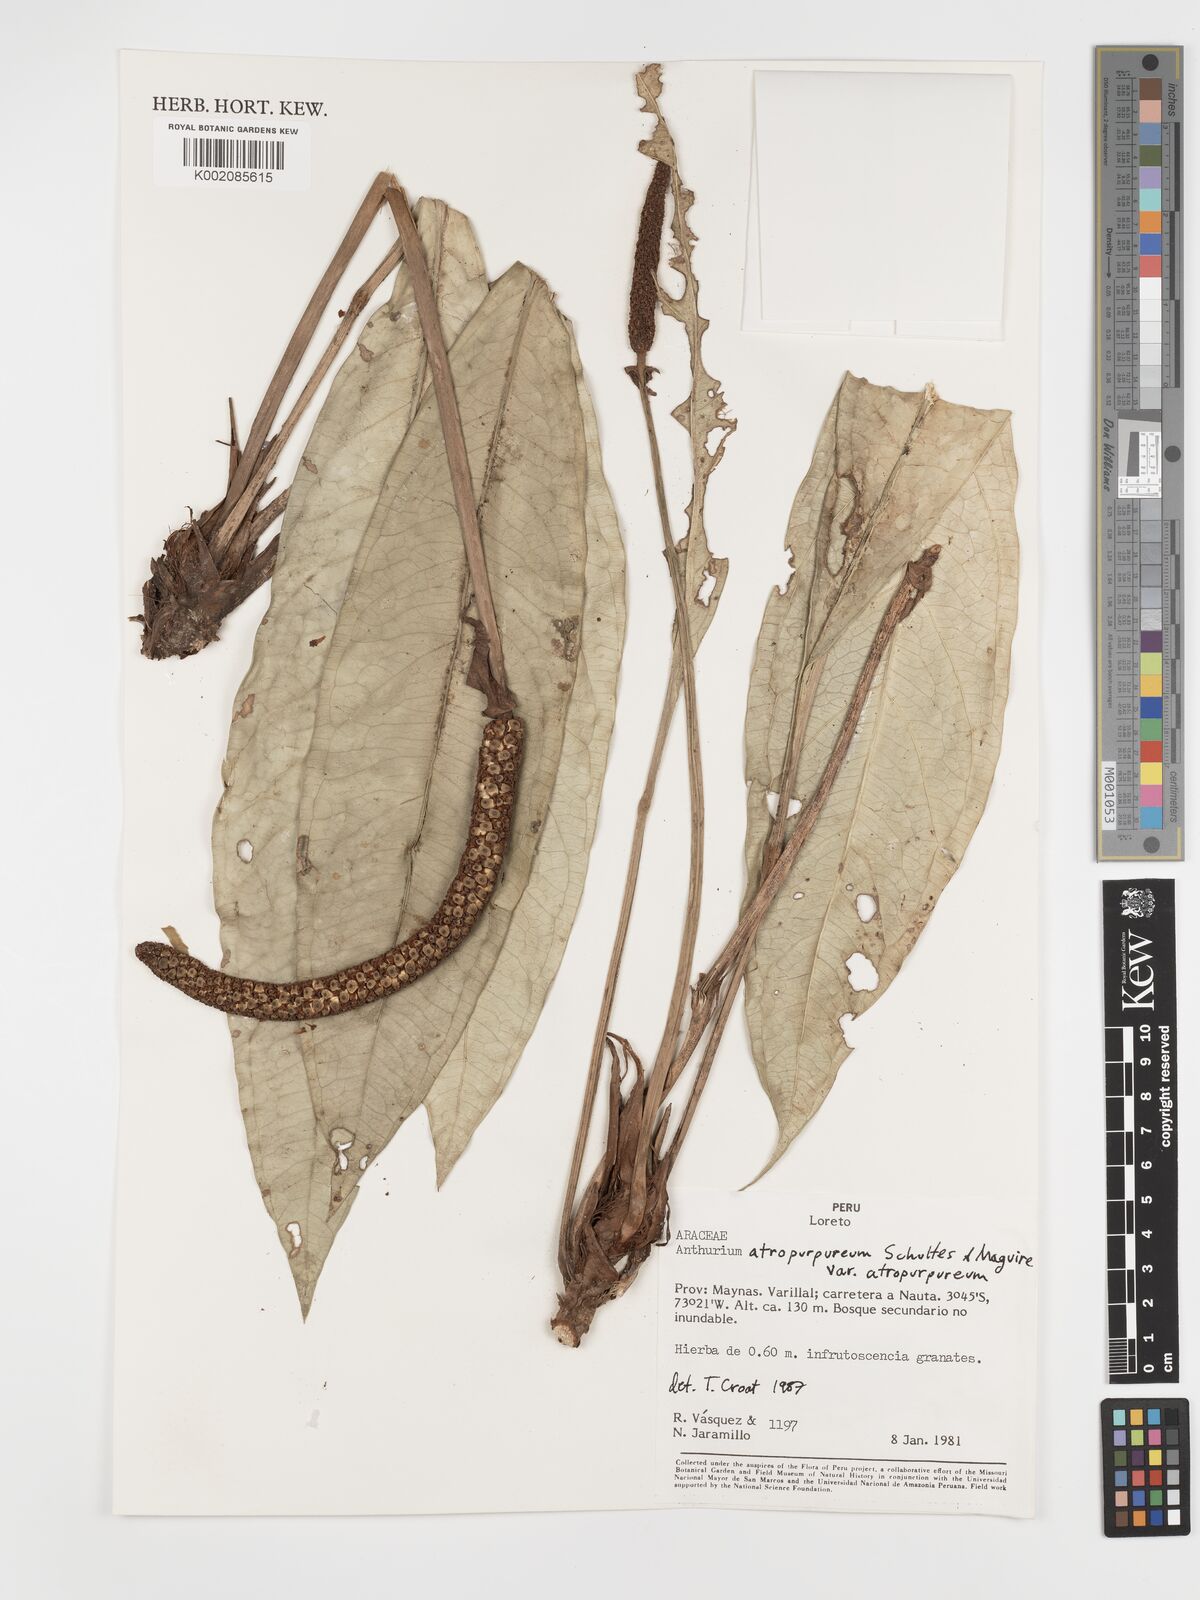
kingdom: Plantae
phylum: Tracheophyta
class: Liliopsida
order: Alismatales
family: Araceae
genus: Anthurium
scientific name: Anthurium atropurpureum
